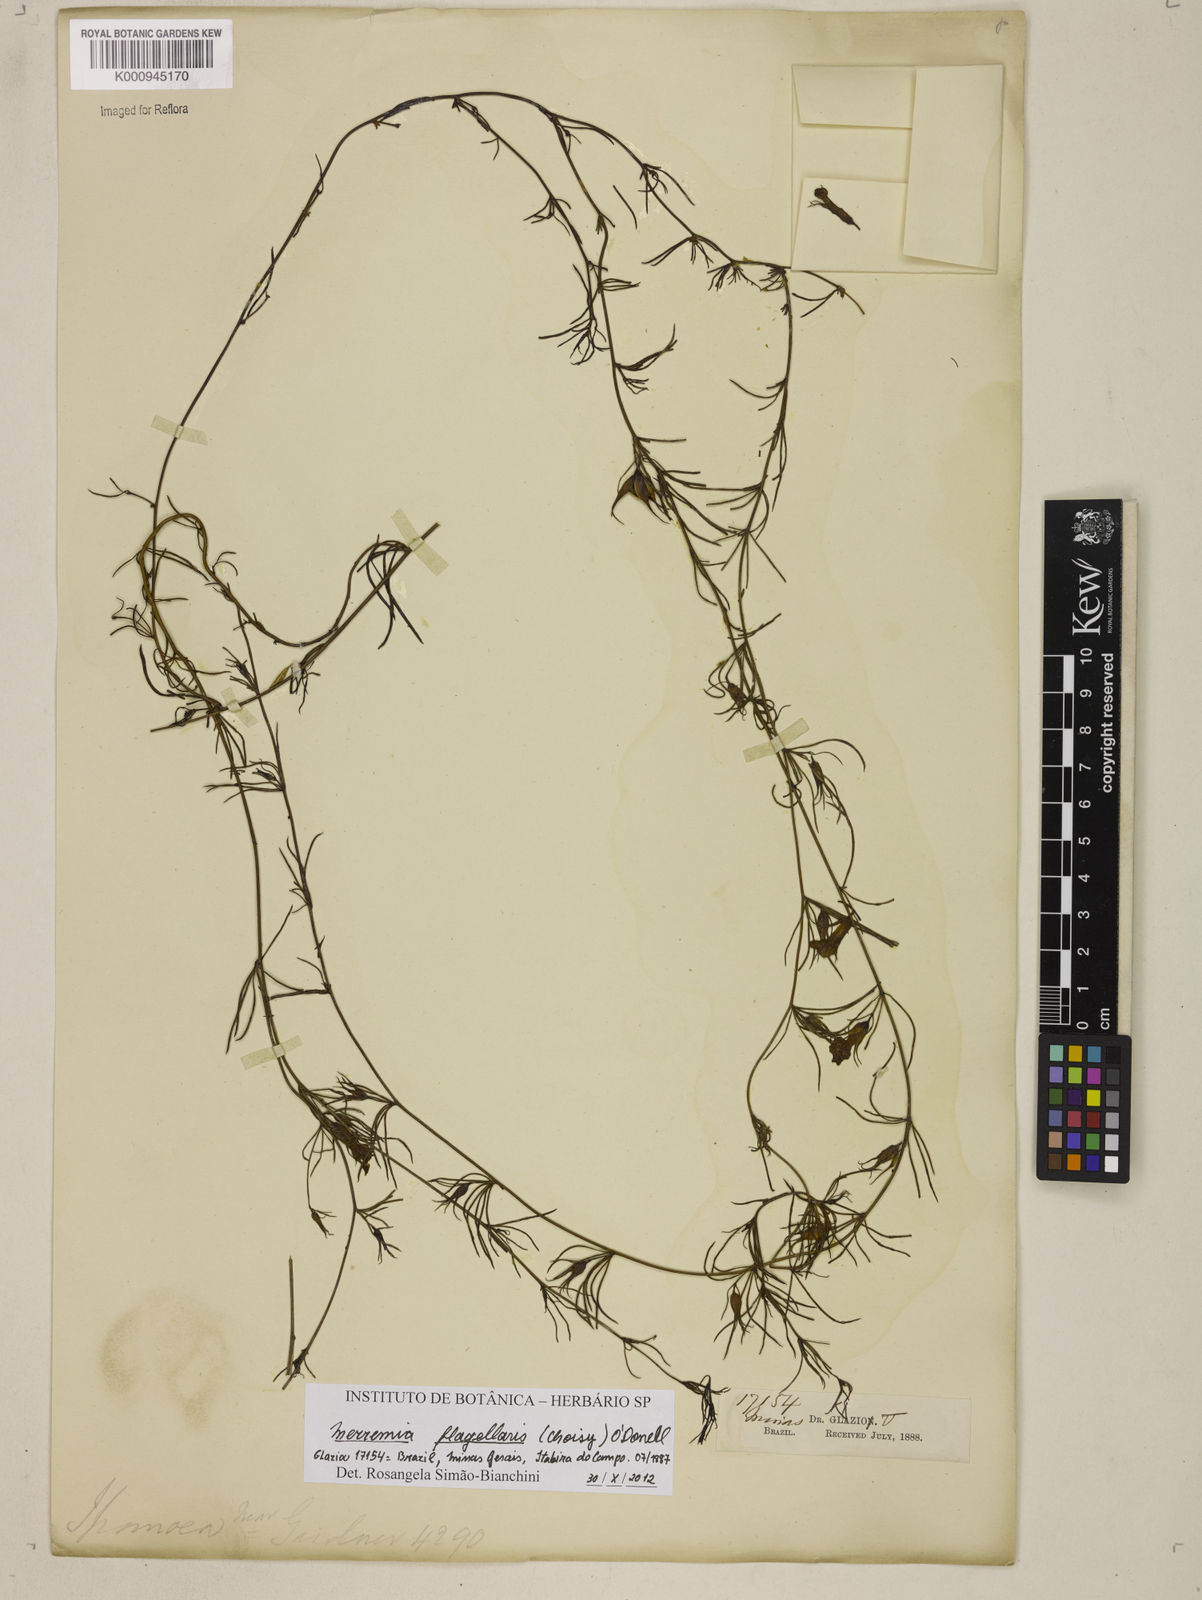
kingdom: Plantae
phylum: Tracheophyta
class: Magnoliopsida
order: Solanales
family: Convolvulaceae
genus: Distimake
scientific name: Distimake flagellaris
